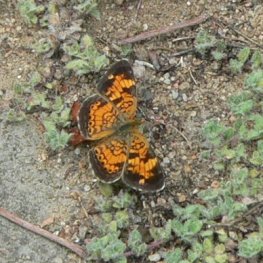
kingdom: Animalia
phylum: Arthropoda
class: Insecta
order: Lepidoptera
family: Nymphalidae
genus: Phyciodes
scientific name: Phyciodes tharos
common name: Pearl Crescent
